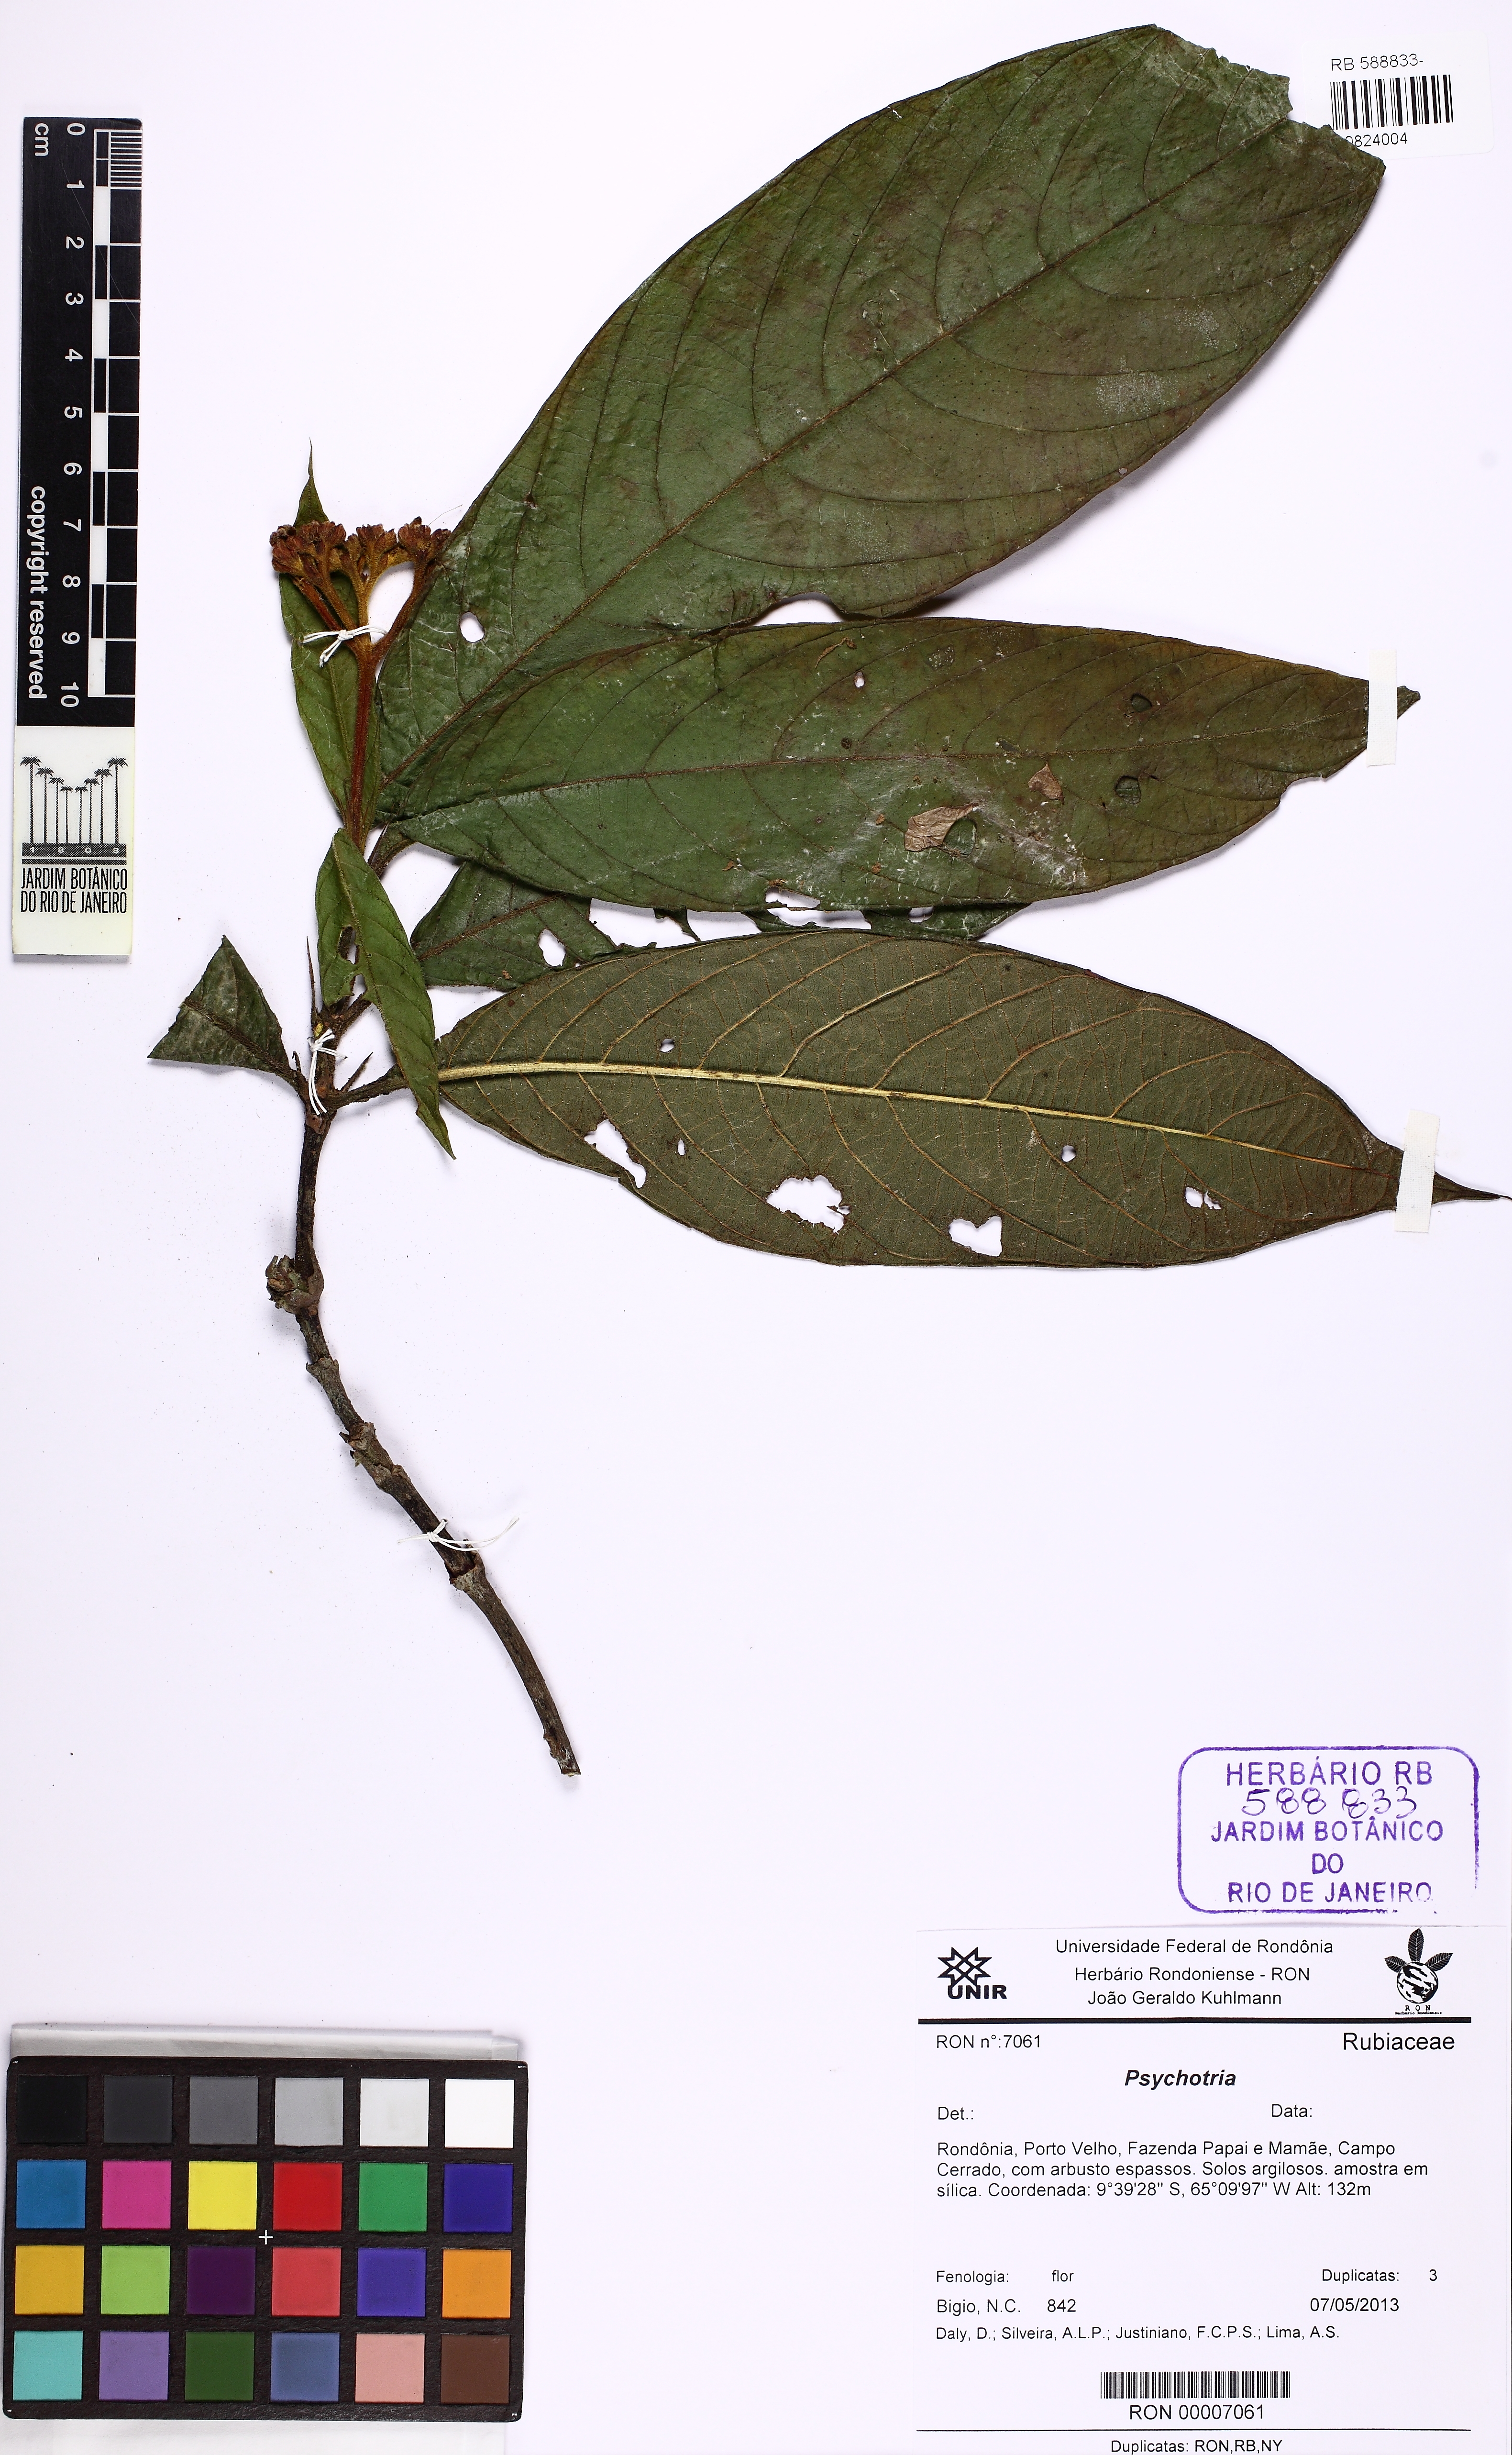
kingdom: Plantae
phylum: Tracheophyta
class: Magnoliopsida
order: Gentianales
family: Rubiaceae
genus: Psychotria
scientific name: Psychotria
